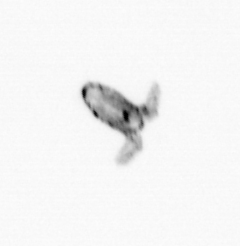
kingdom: Animalia
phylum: Arthropoda
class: Copepoda
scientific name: Copepoda
